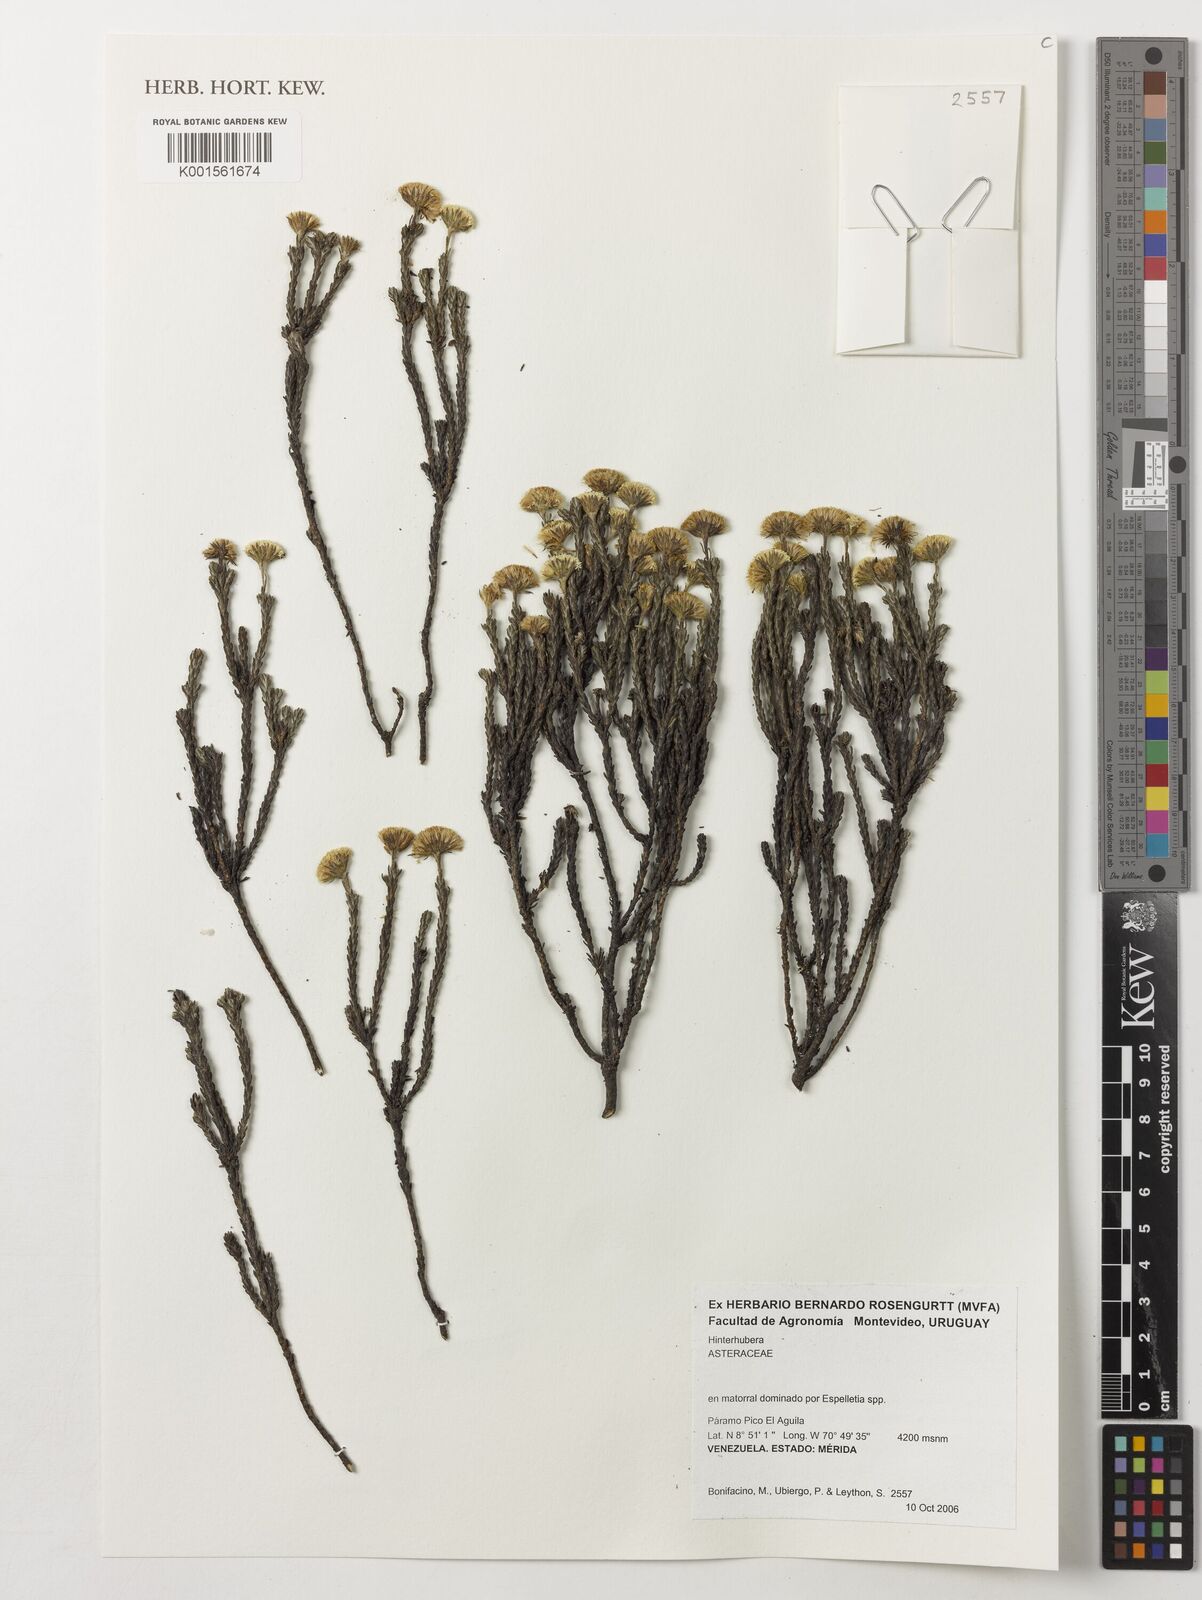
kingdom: Plantae
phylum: Tracheophyta
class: Magnoliopsida
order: Asterales
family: Asteraceae
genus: Hinterhubera
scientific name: Hinterhubera
